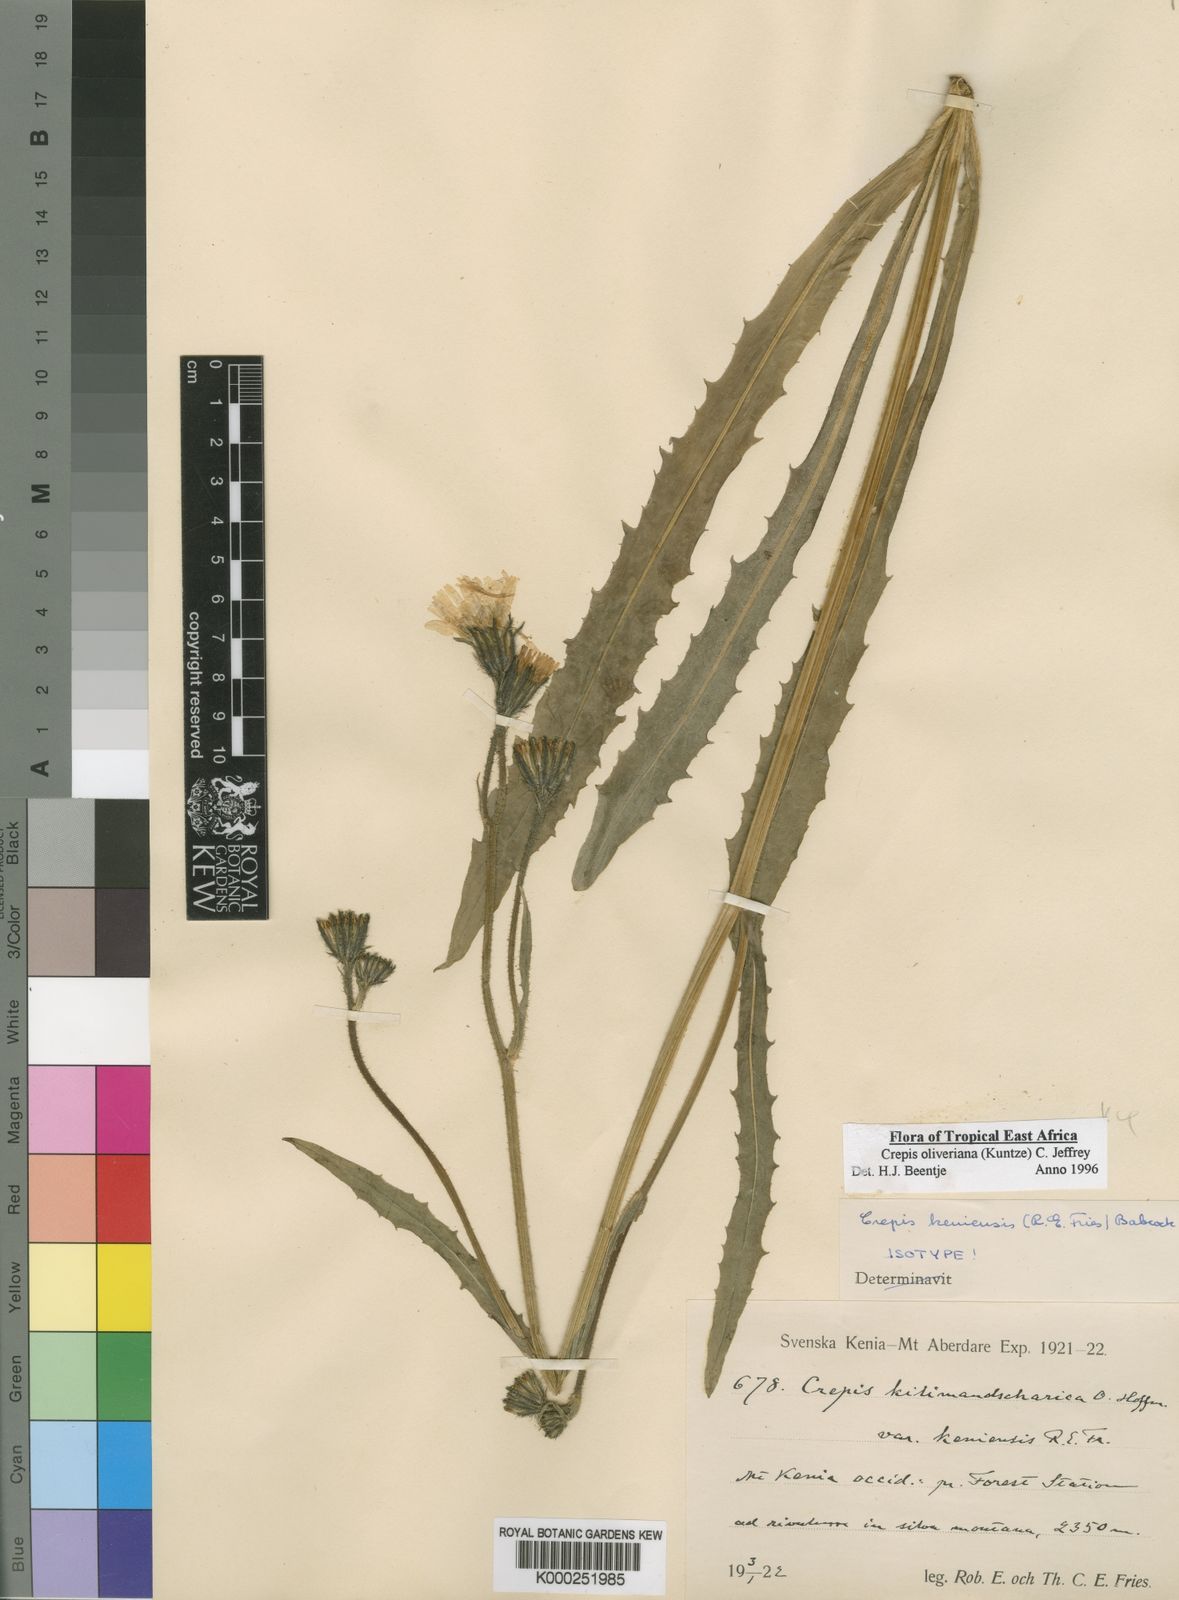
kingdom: Plantae
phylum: Tracheophyta
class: Magnoliopsida
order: Asterales
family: Asteraceae
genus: Crepis
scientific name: Crepis
